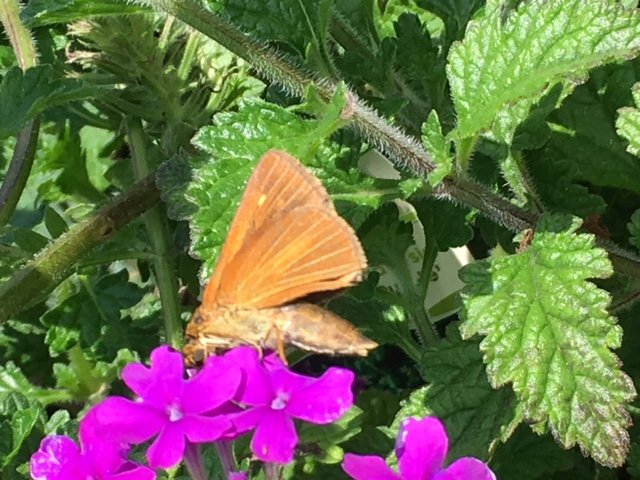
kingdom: Animalia
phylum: Arthropoda
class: Insecta
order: Lepidoptera
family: Hesperiidae
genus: Euphyes
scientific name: Euphyes dion
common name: Dion Skipper
